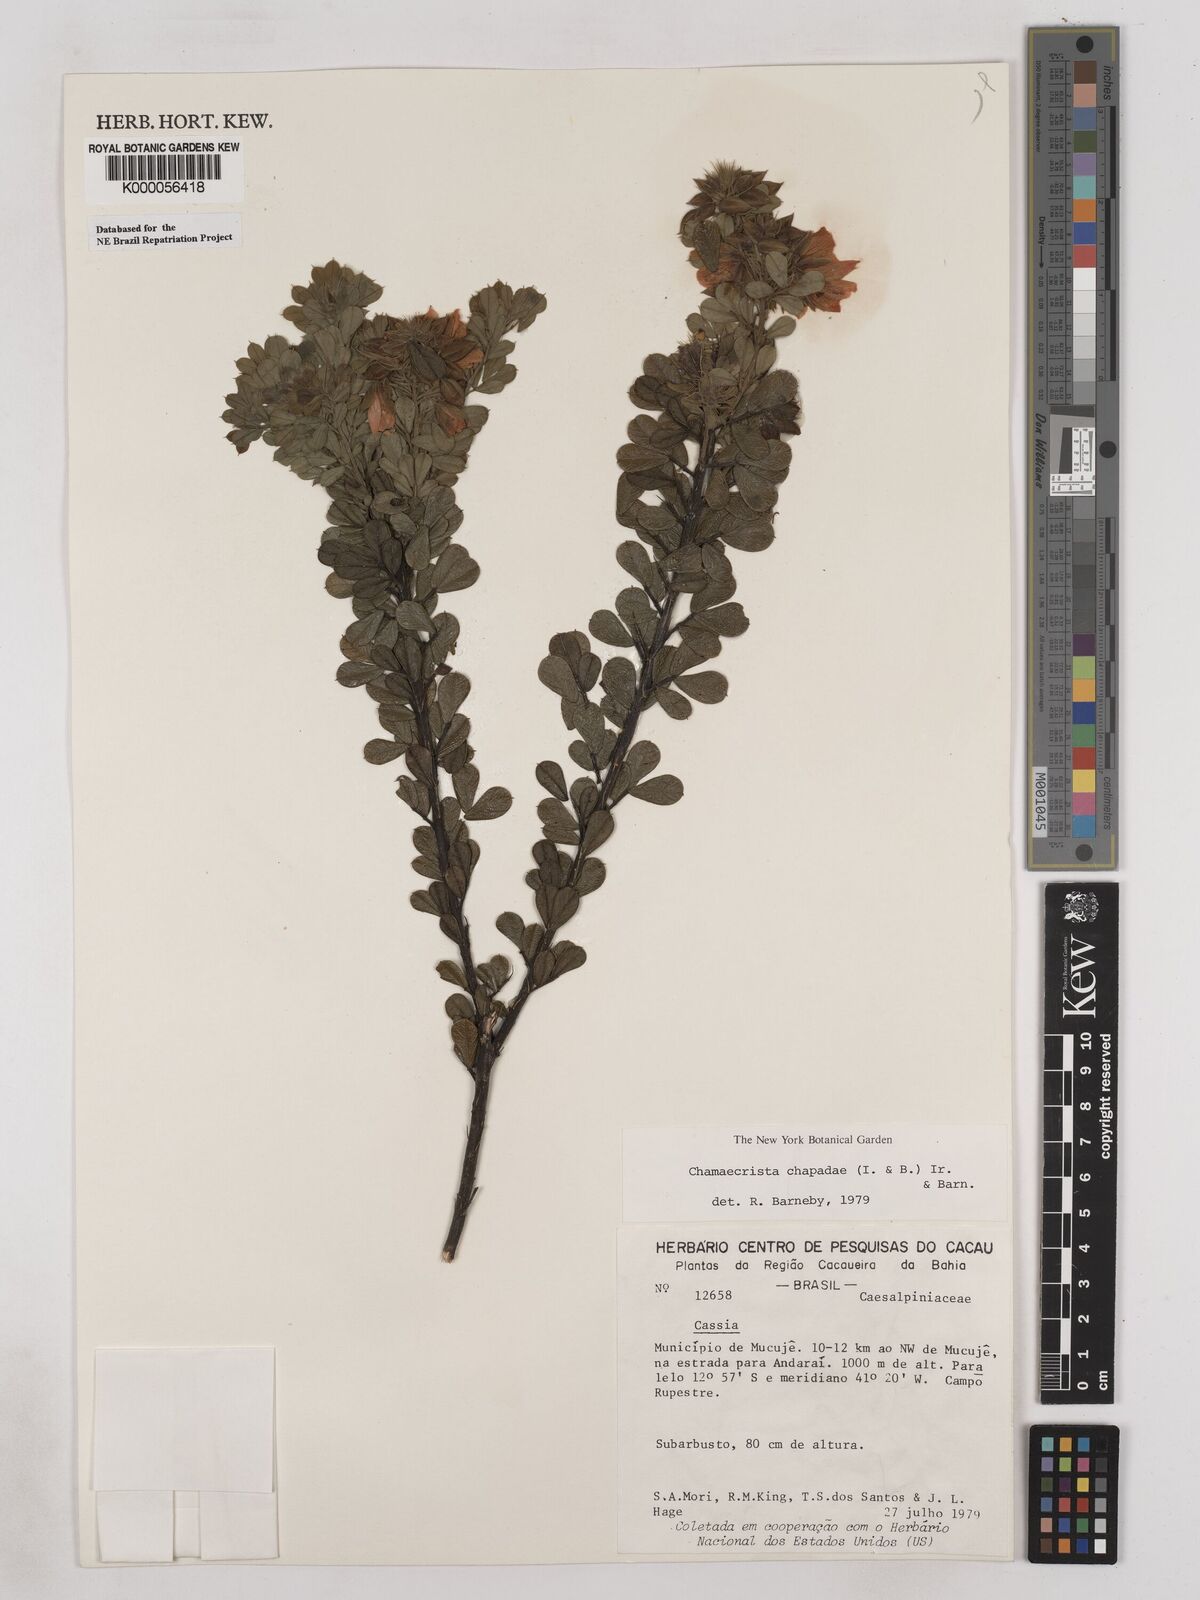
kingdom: Plantae
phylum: Tracheophyta
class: Magnoliopsida
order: Fabales
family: Fabaceae
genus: Chamaecrista
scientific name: Chamaecrista chapadae
